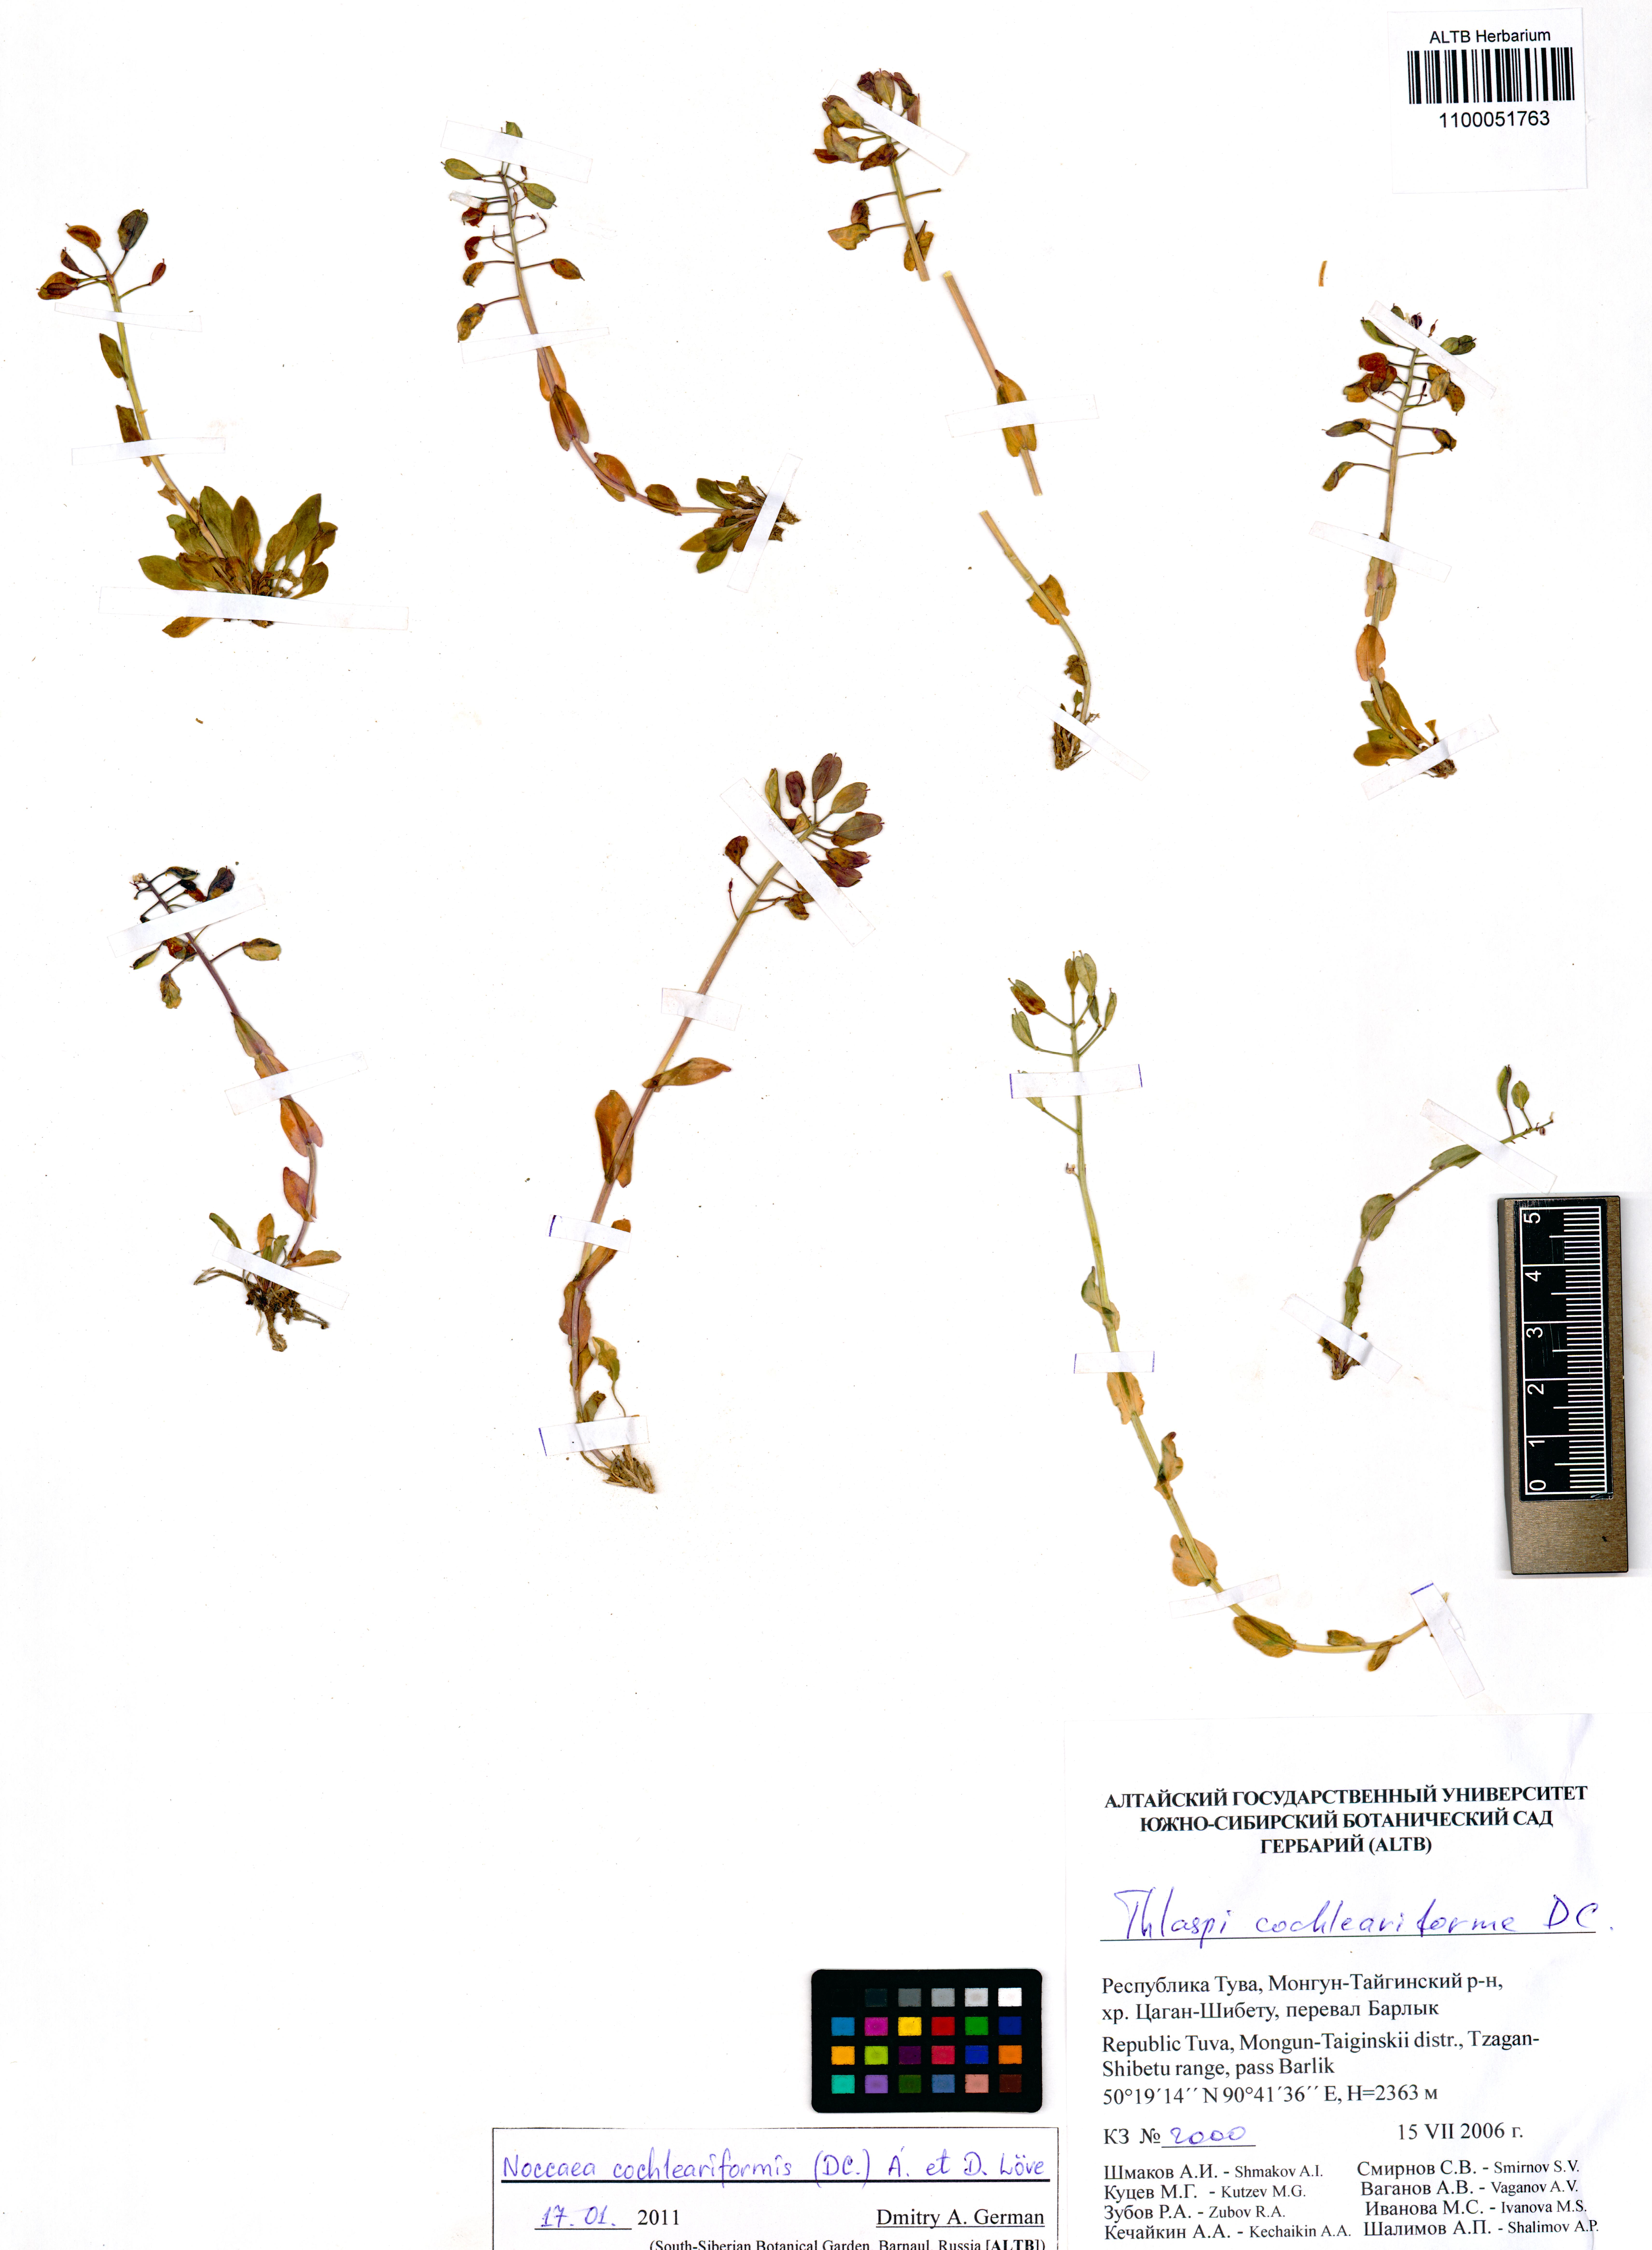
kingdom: Plantae
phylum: Tracheophyta
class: Magnoliopsida
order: Brassicales
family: Brassicaceae
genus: Noccaea
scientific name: Noccaea thlaspidioides
